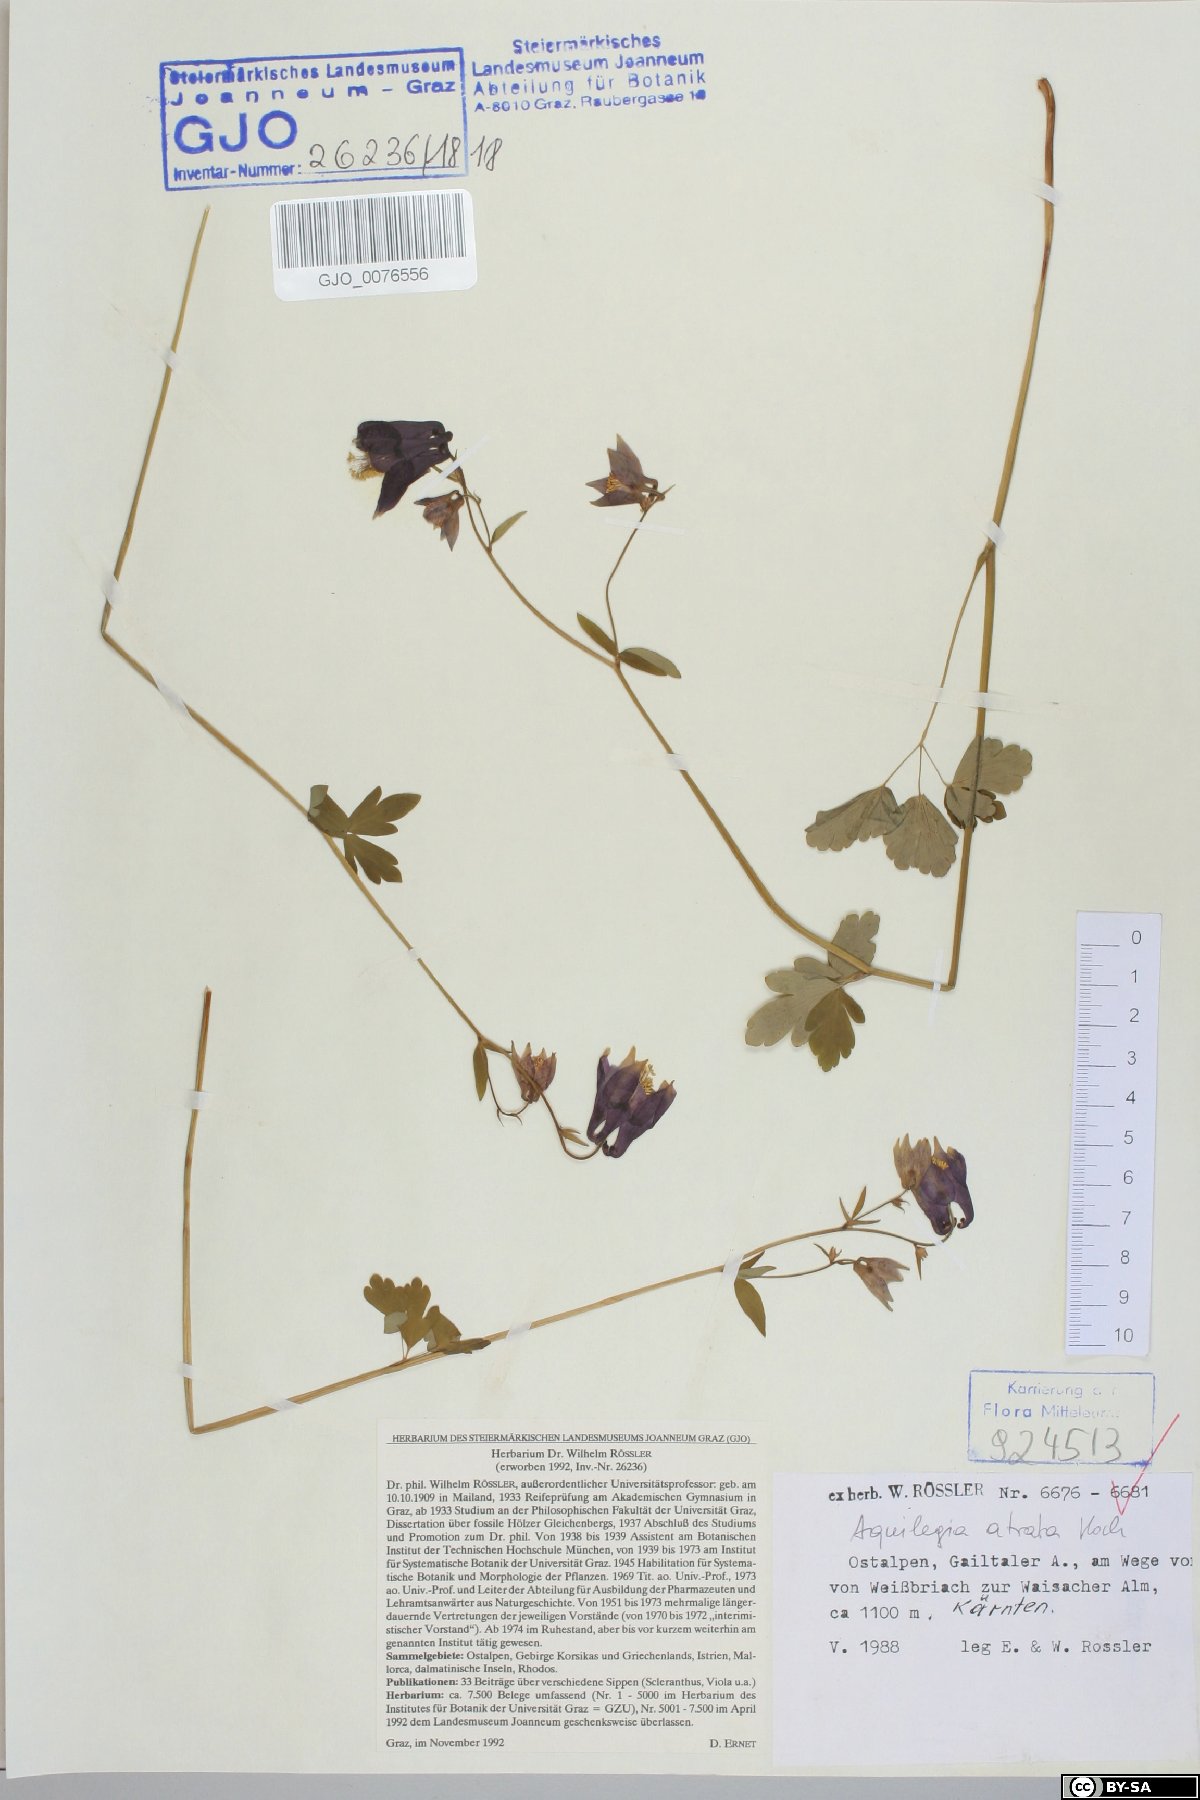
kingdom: Plantae
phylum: Tracheophyta
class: Magnoliopsida
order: Ranunculales
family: Ranunculaceae
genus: Aquilegia
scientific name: Aquilegia atrata
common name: Dark columbine
